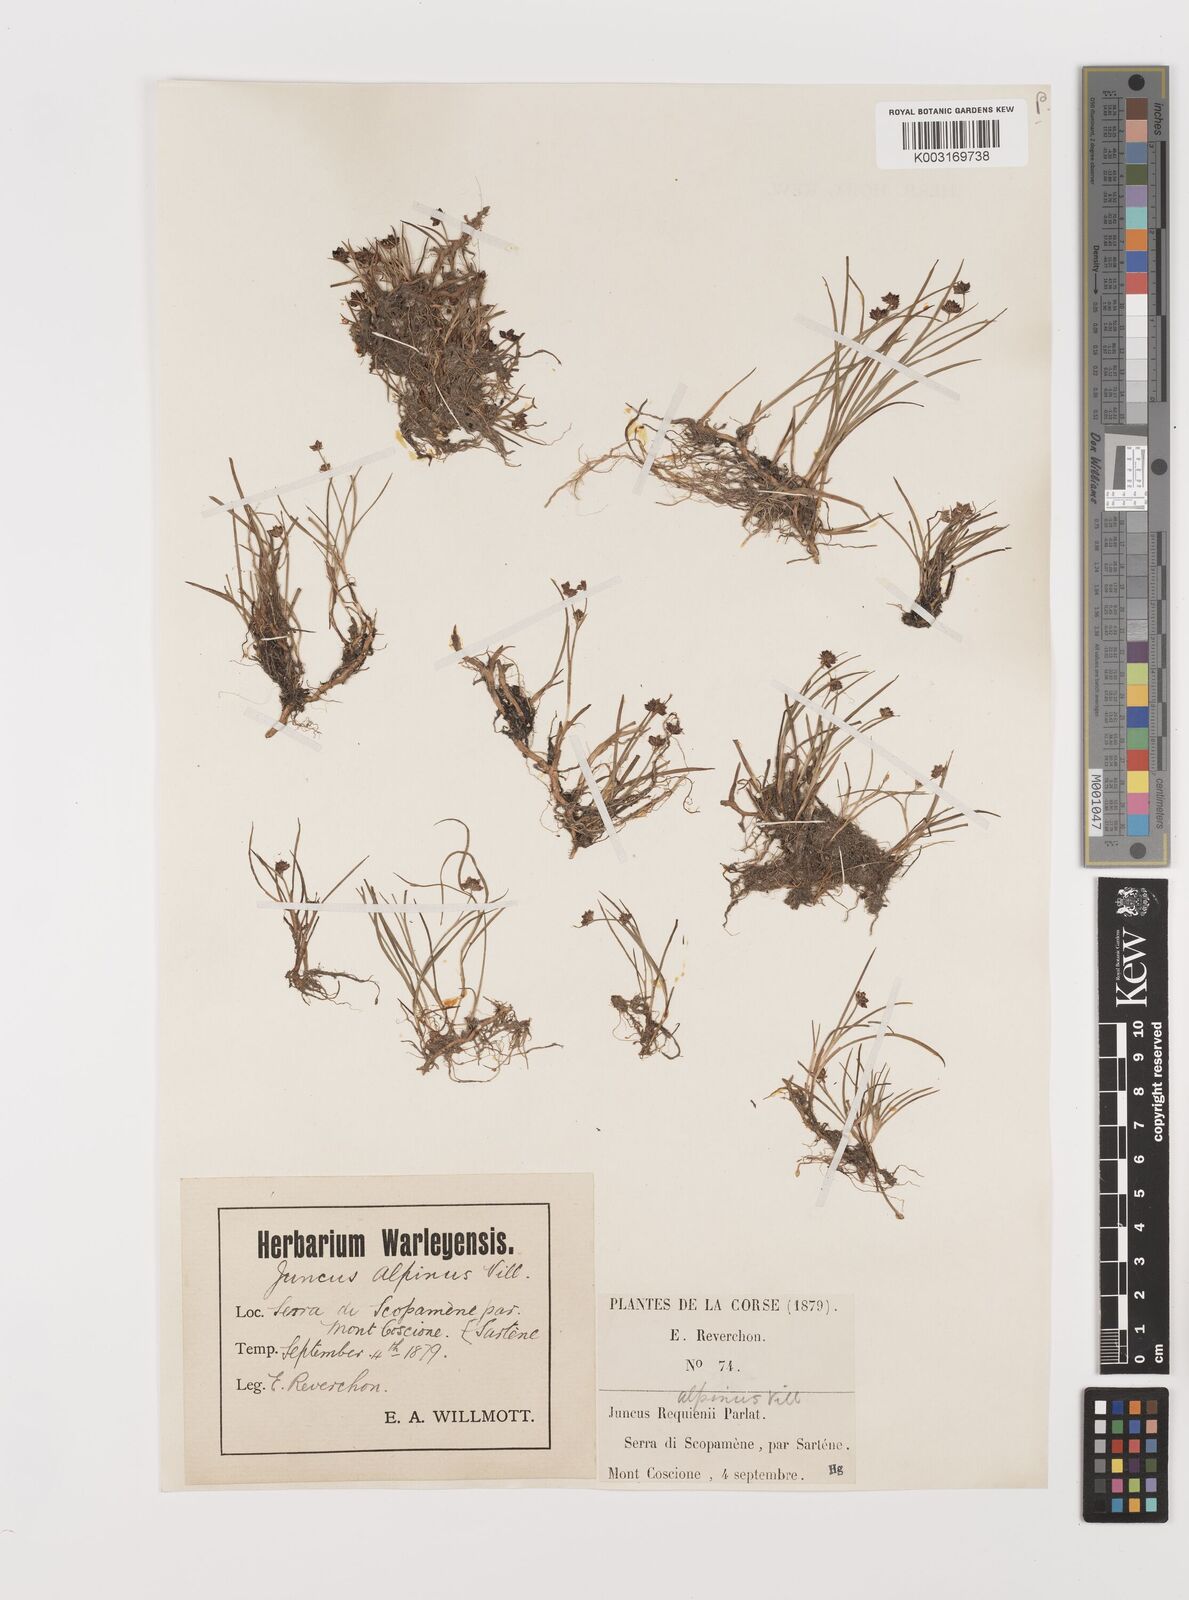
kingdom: Plantae
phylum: Tracheophyta
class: Liliopsida
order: Poales
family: Juncaceae
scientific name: Juncaceae
